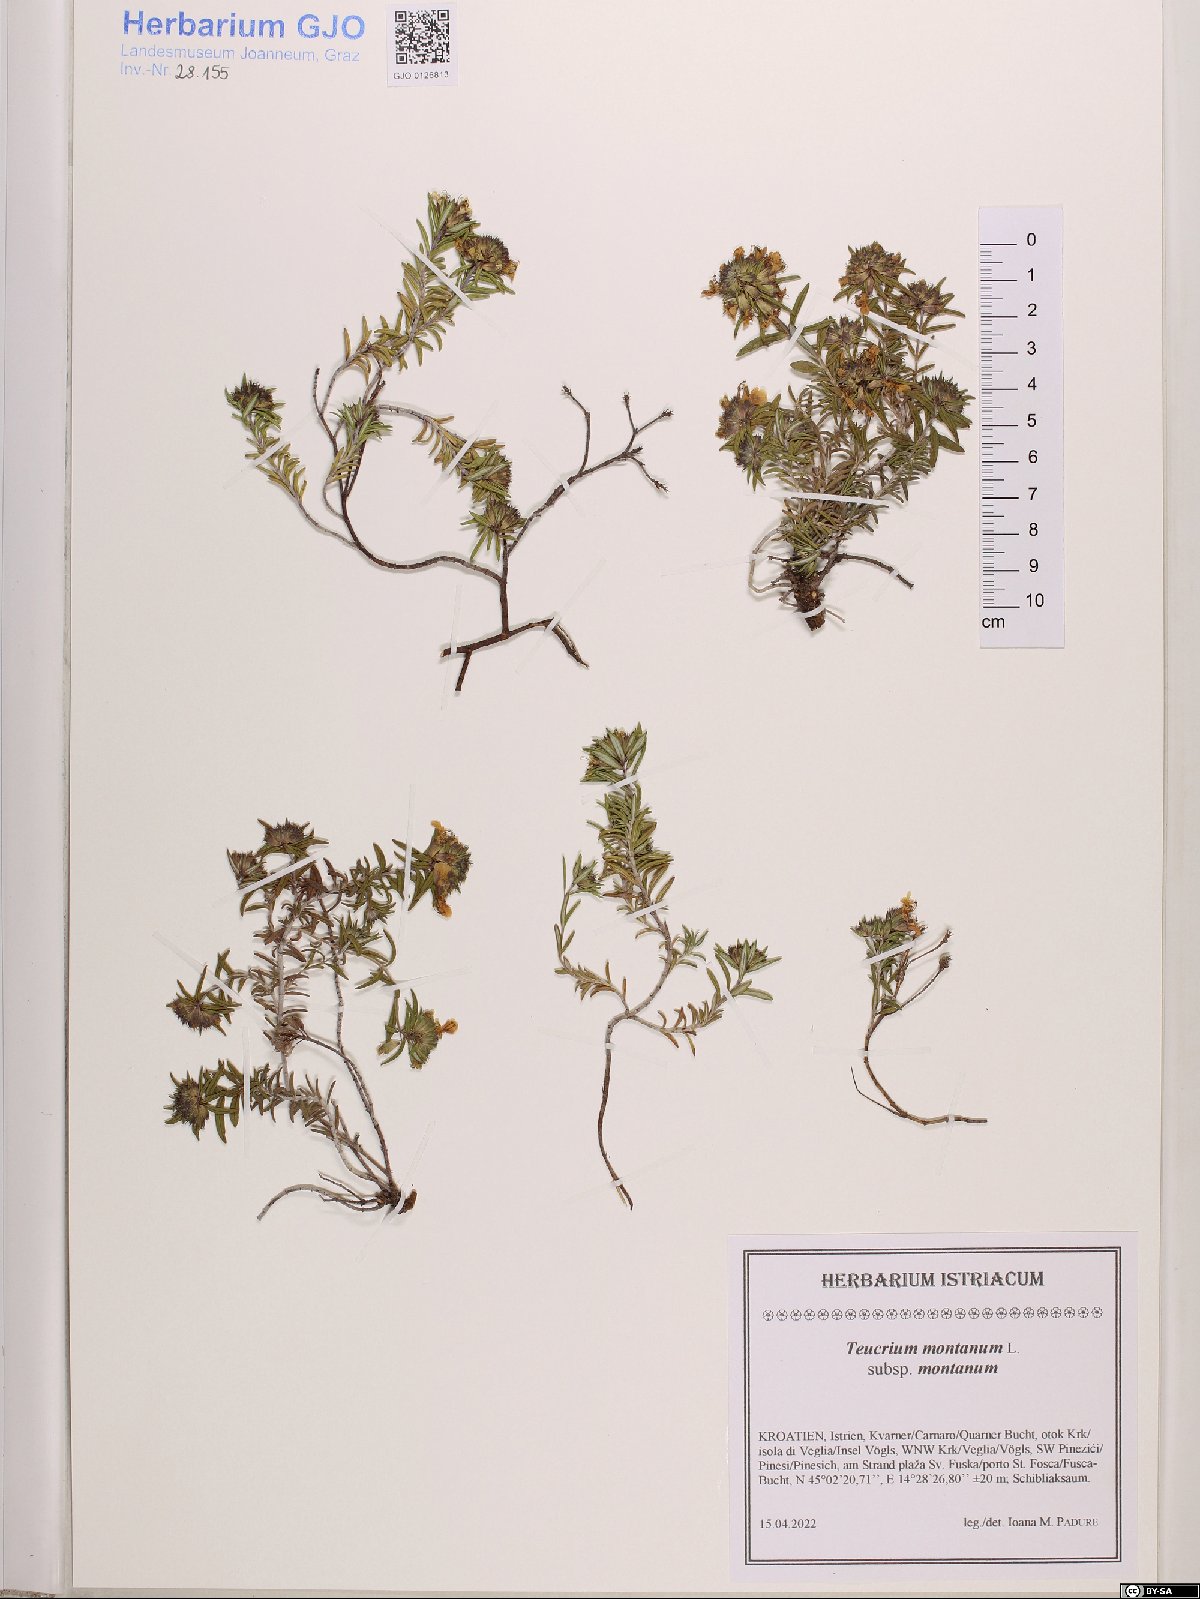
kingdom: Plantae
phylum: Tracheophyta
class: Magnoliopsida
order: Lamiales
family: Lamiaceae
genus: Teucrium
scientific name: Teucrium montanum
